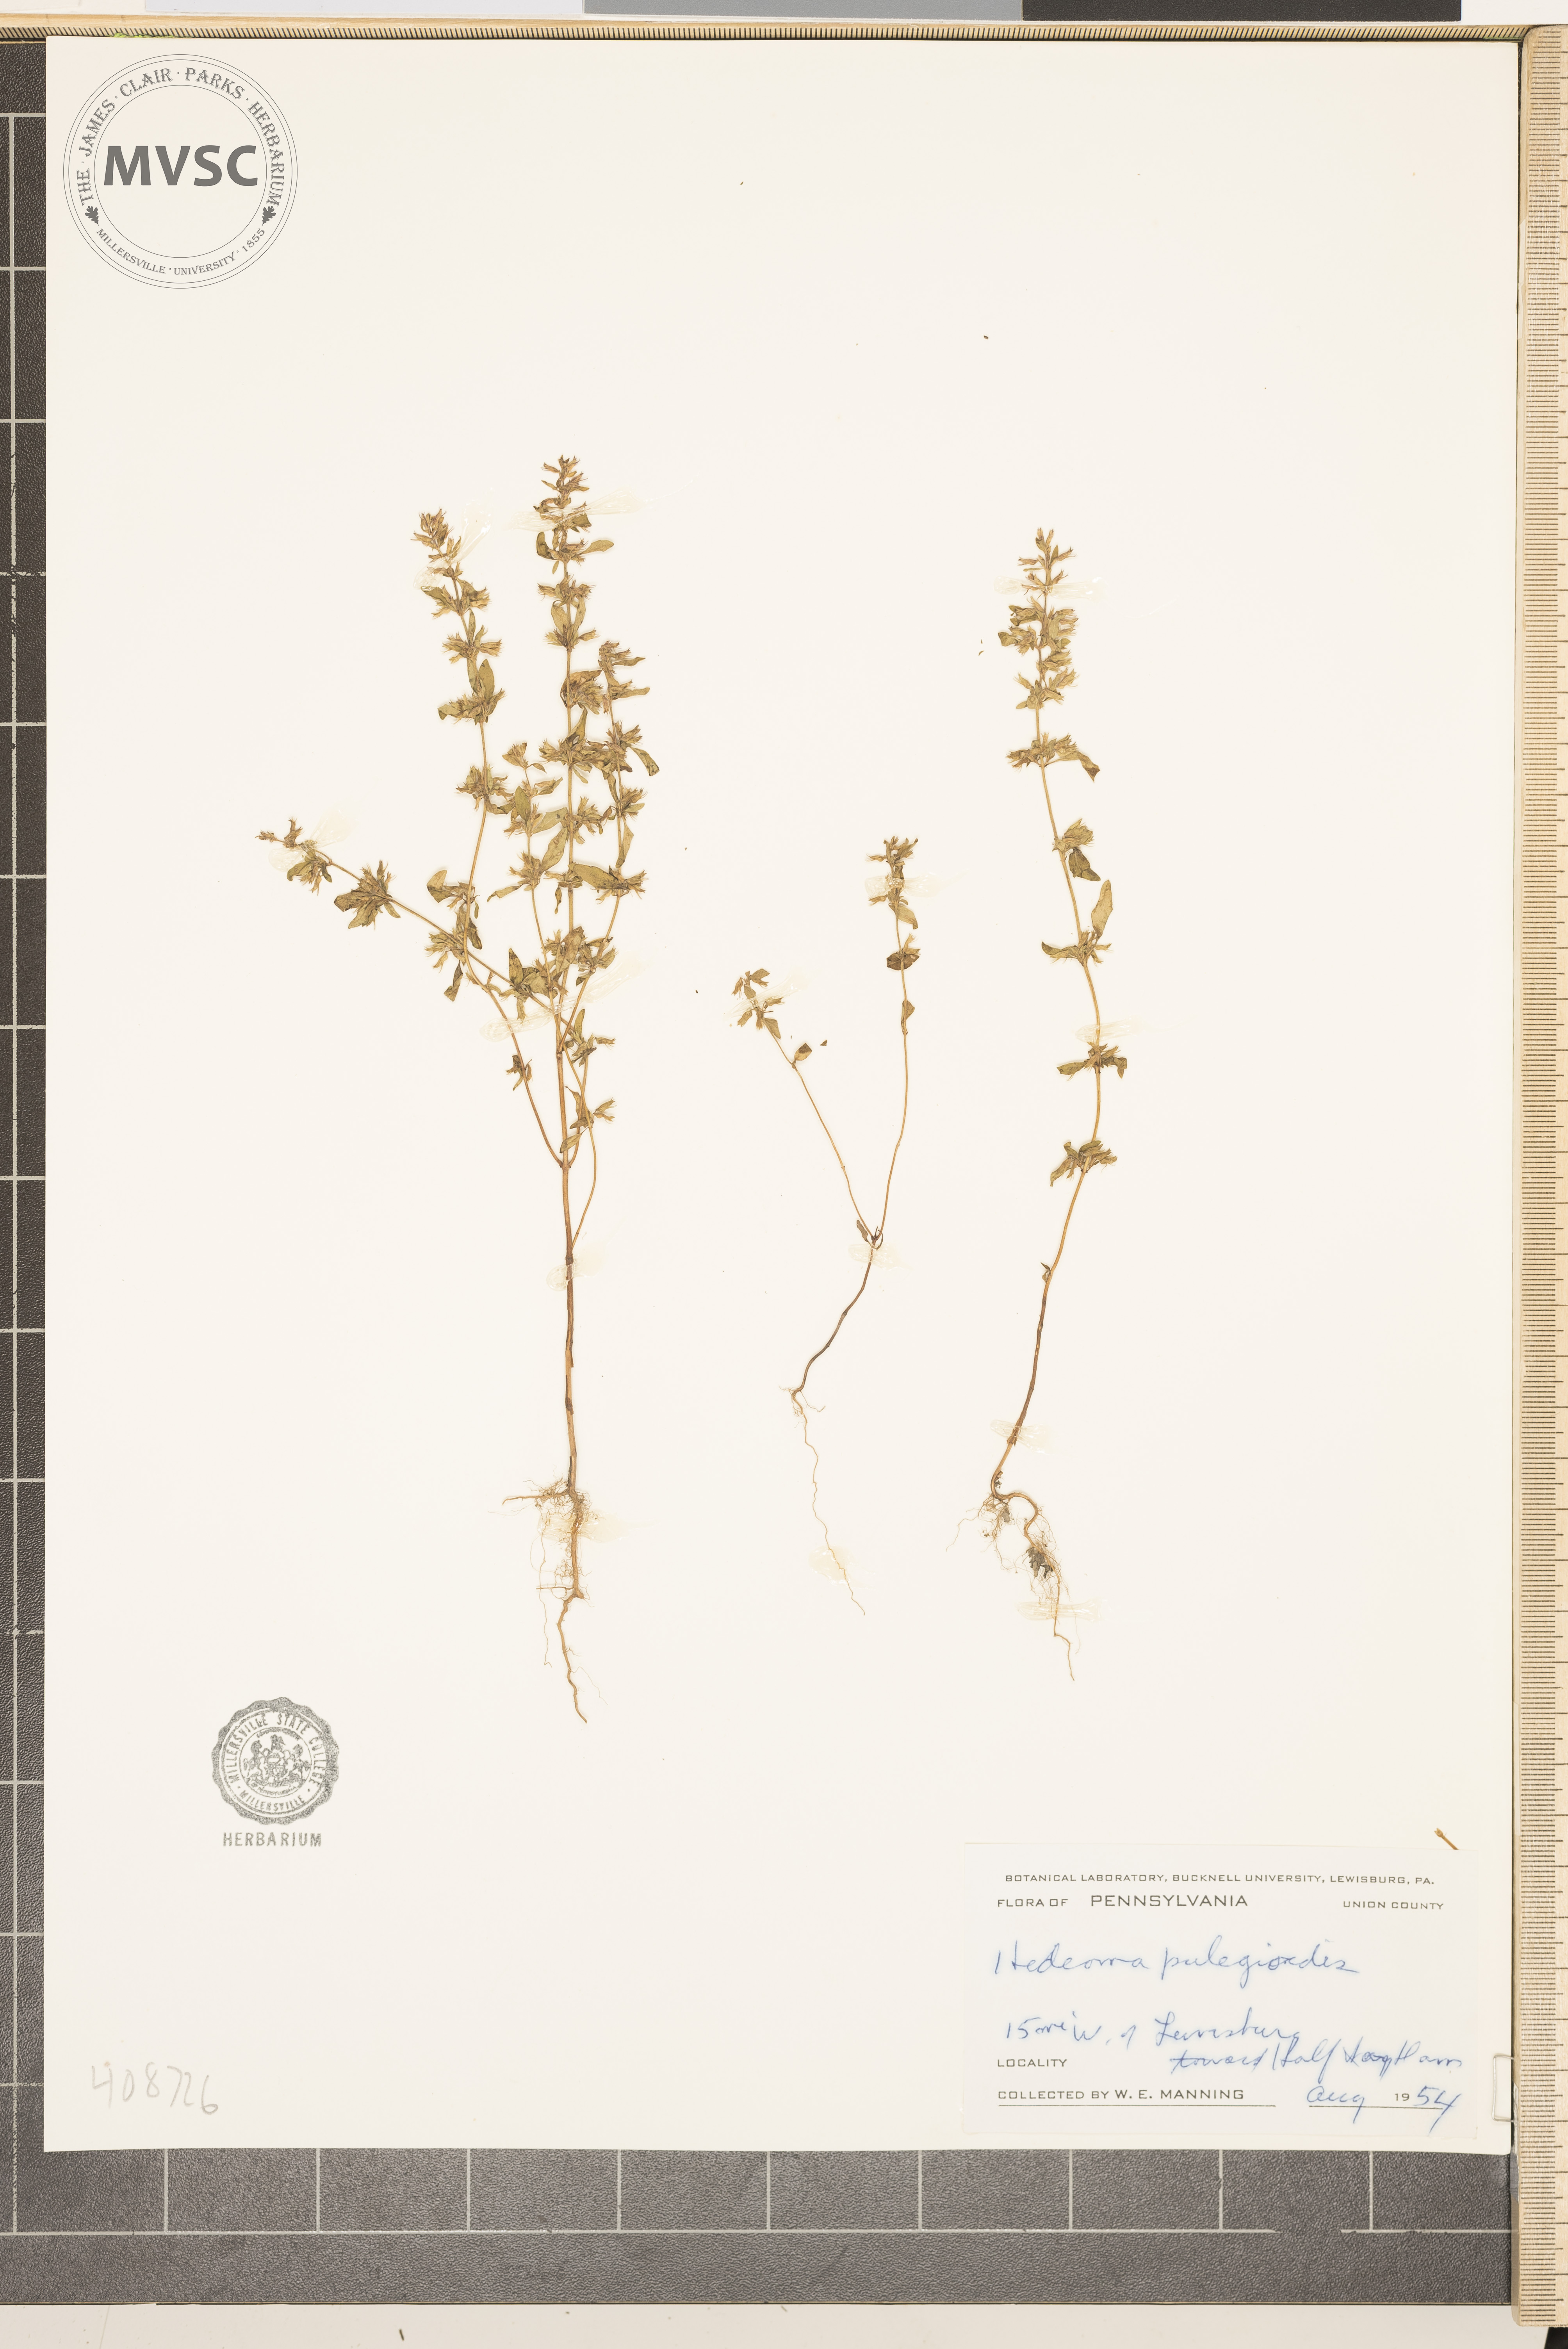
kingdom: Plantae
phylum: Tracheophyta
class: Magnoliopsida
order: Lamiales
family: Lamiaceae
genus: Hedeoma
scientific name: Hedeoma pulegioides
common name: American false pennyroyal
